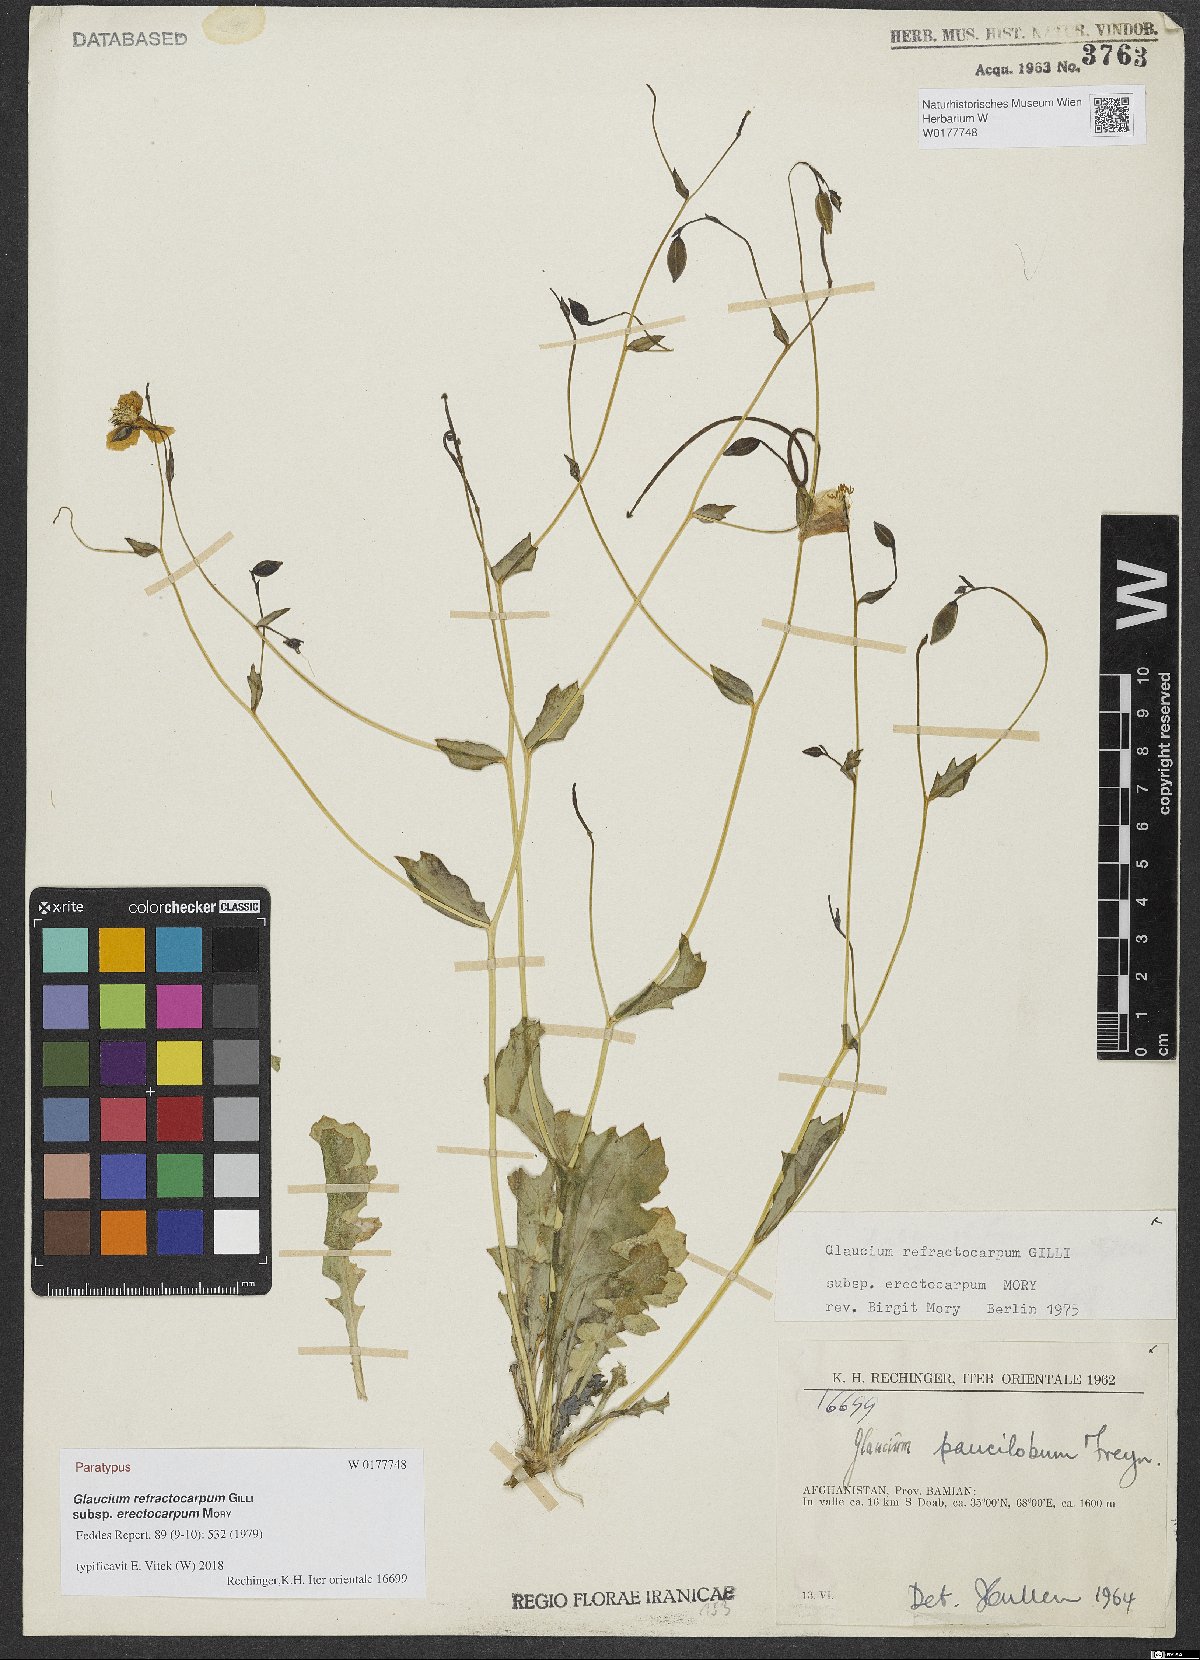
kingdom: Plantae
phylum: Tracheophyta
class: Magnoliopsida
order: Ranunculales
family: Papaveraceae
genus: Glaucium
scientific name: Glaucium refractocarpum
